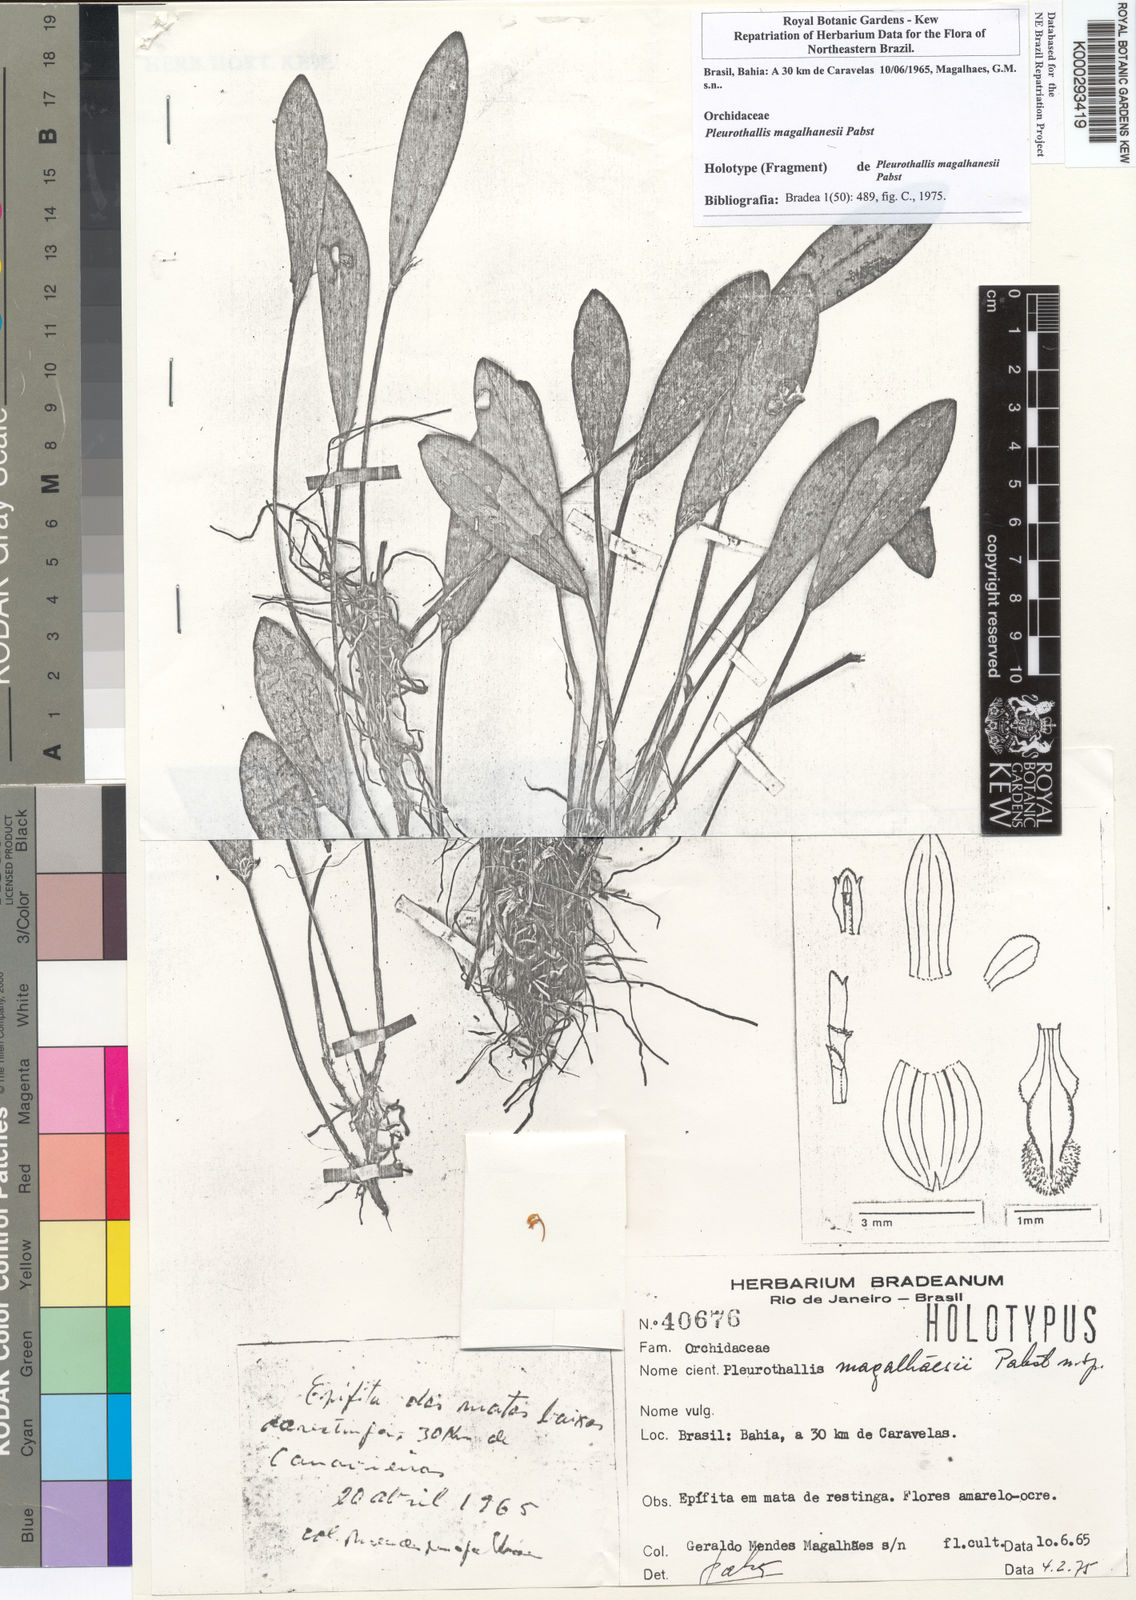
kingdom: Plantae
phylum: Tracheophyta
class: Liliopsida
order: Asparagales
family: Orchidaceae
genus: Pleurothallis
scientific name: Pleurothallis
